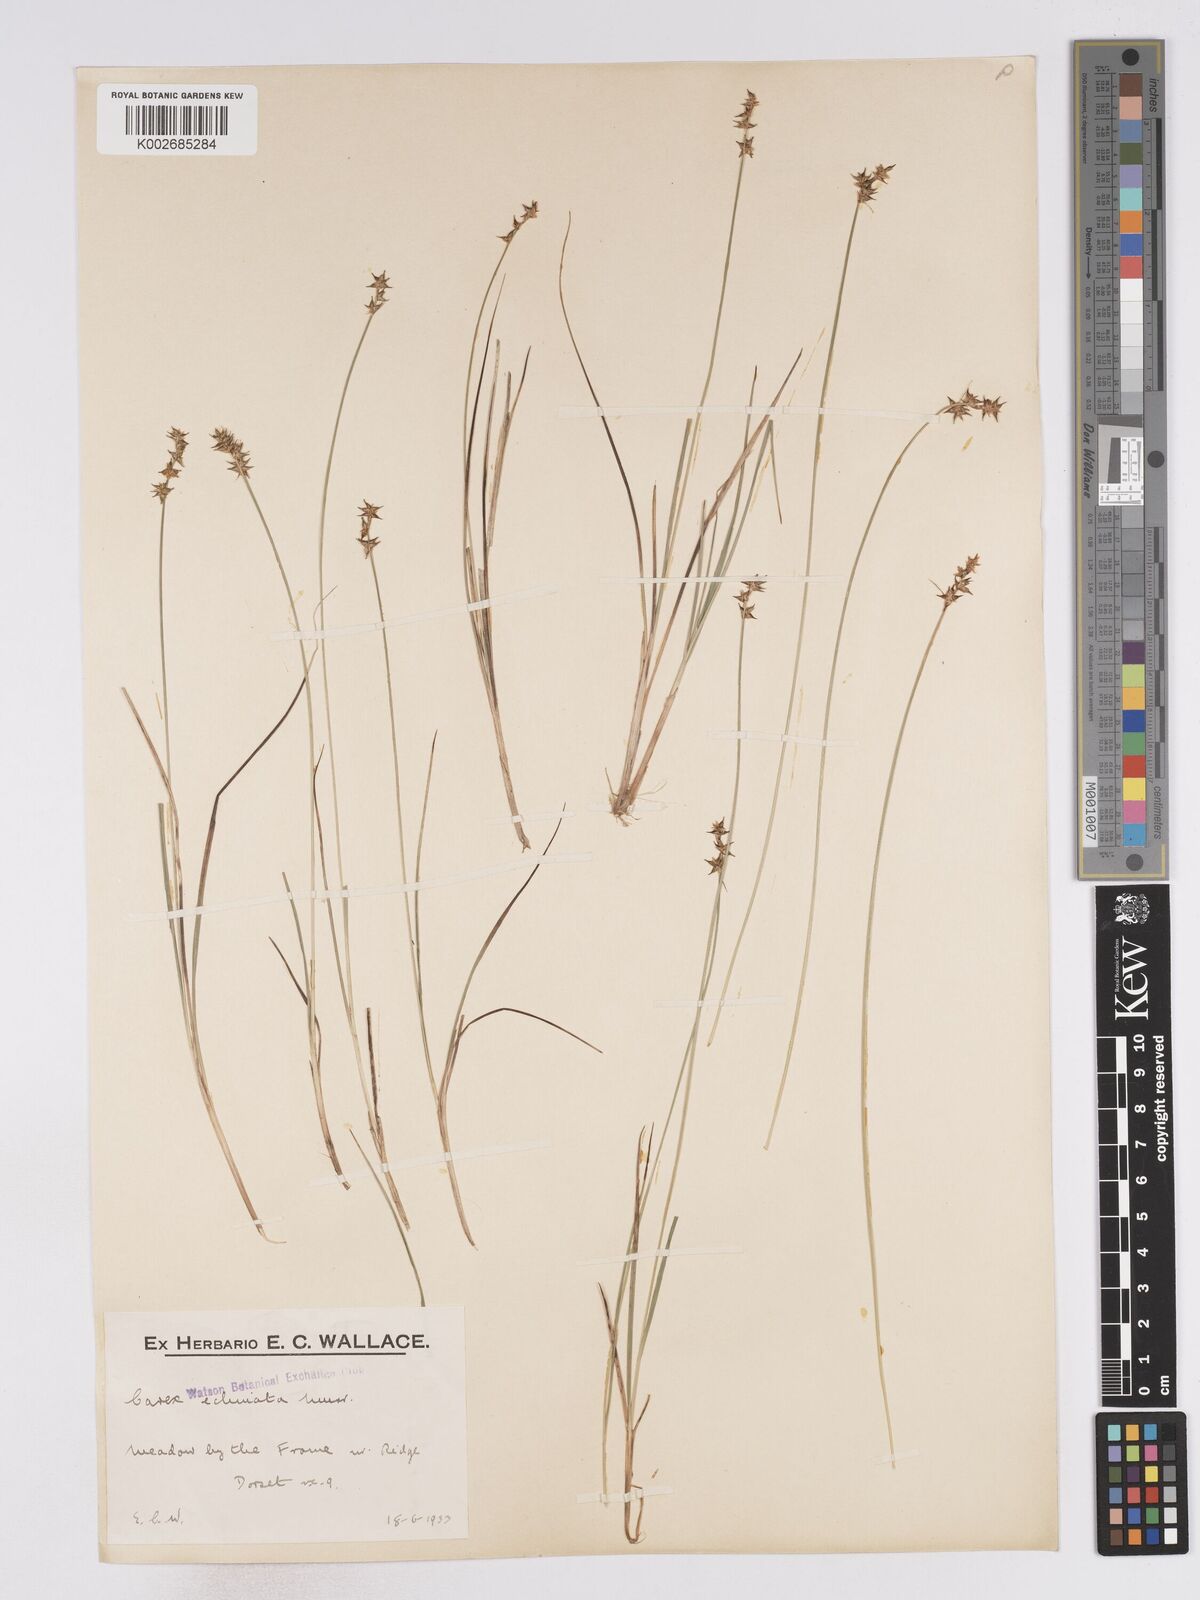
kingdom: Plantae
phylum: Tracheophyta
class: Liliopsida
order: Poales
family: Cyperaceae
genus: Carex
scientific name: Carex echinata
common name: Star sedge
